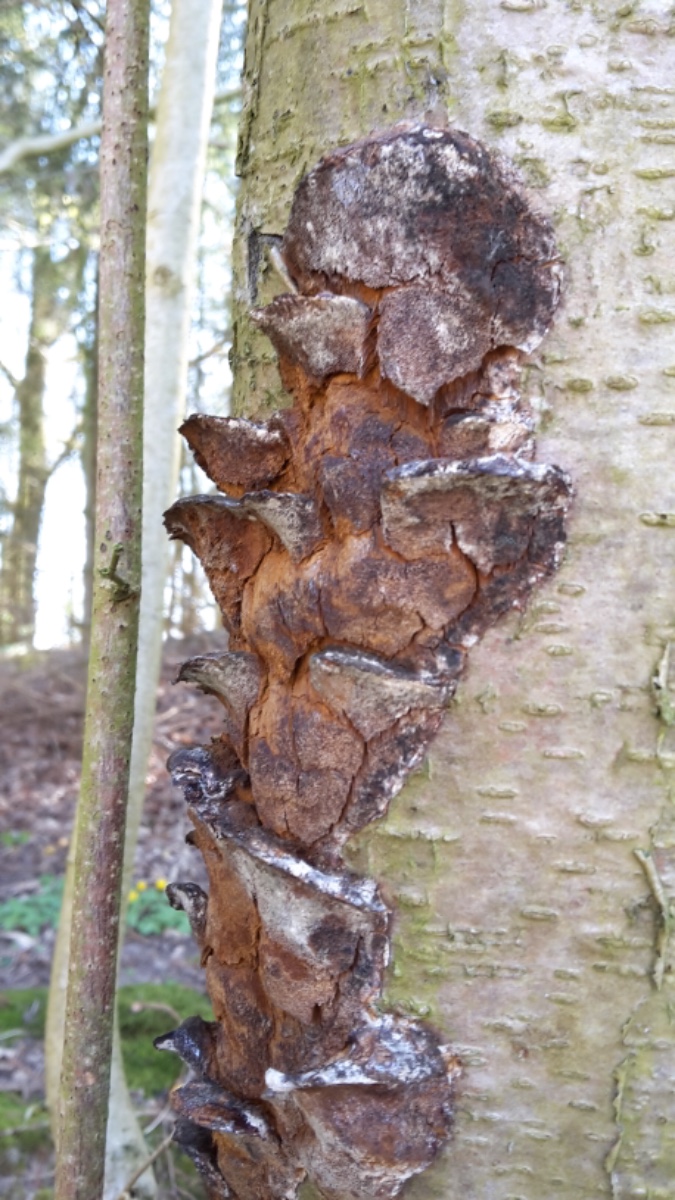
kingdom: Fungi
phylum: Basidiomycota
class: Agaricomycetes
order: Hymenochaetales
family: Hymenochaetaceae
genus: Xanthoporia
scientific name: Xanthoporia radiata
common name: elle-spejlporesvamp
